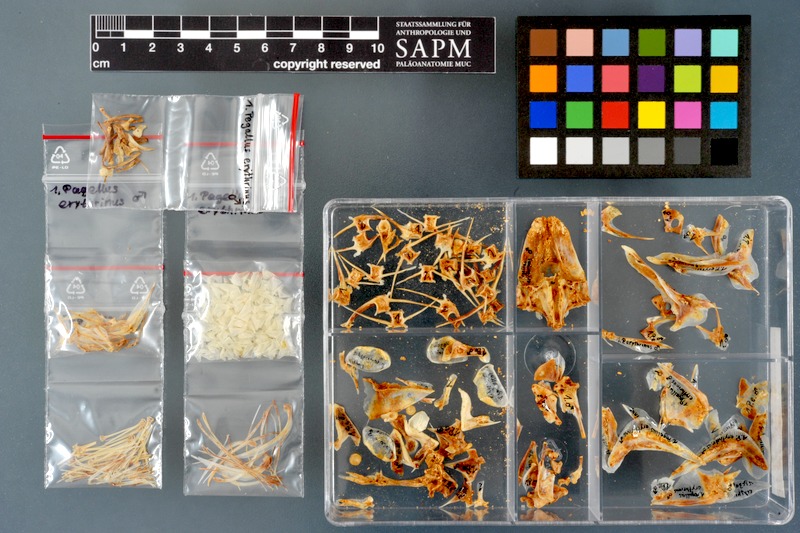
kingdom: Animalia
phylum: Chordata
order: Perciformes
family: Sparidae
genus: Pagellus
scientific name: Pagellus erythrinus
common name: Pandora
